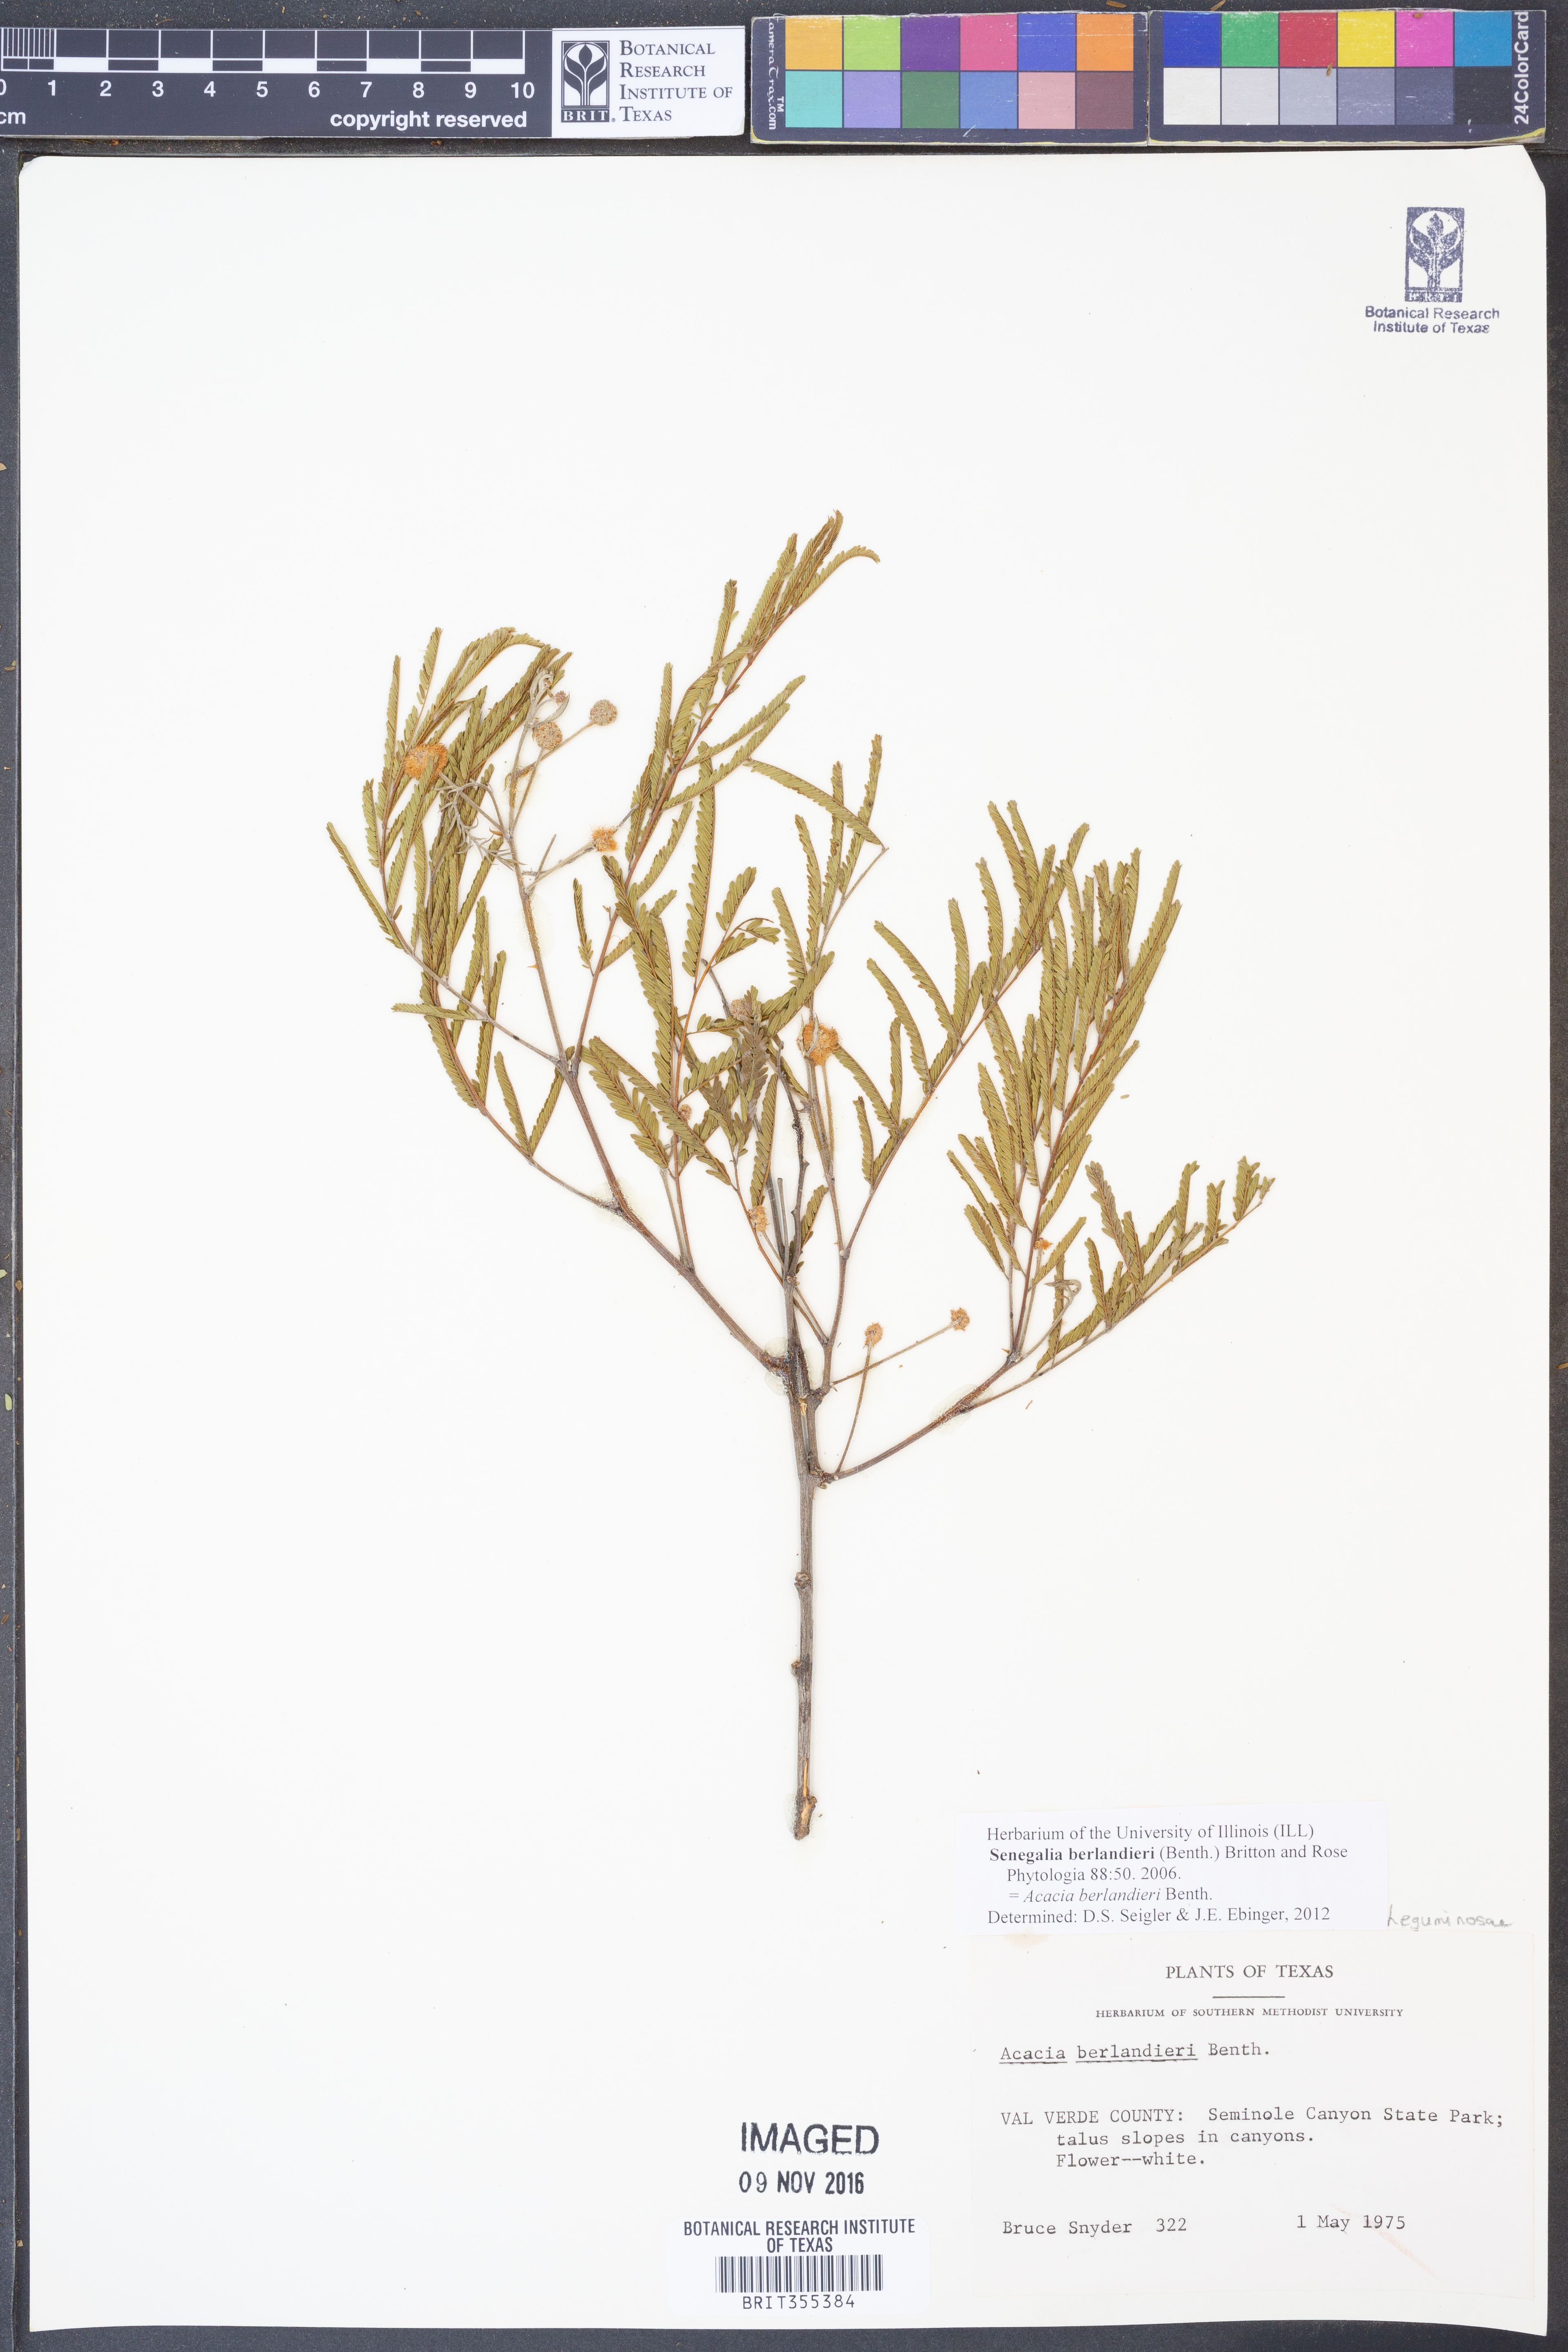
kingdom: Plantae
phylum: Tracheophyta
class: Magnoliopsida
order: Fabales
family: Fabaceae
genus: Senegalia
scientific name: Senegalia berlandieri
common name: Berlandier acacia
